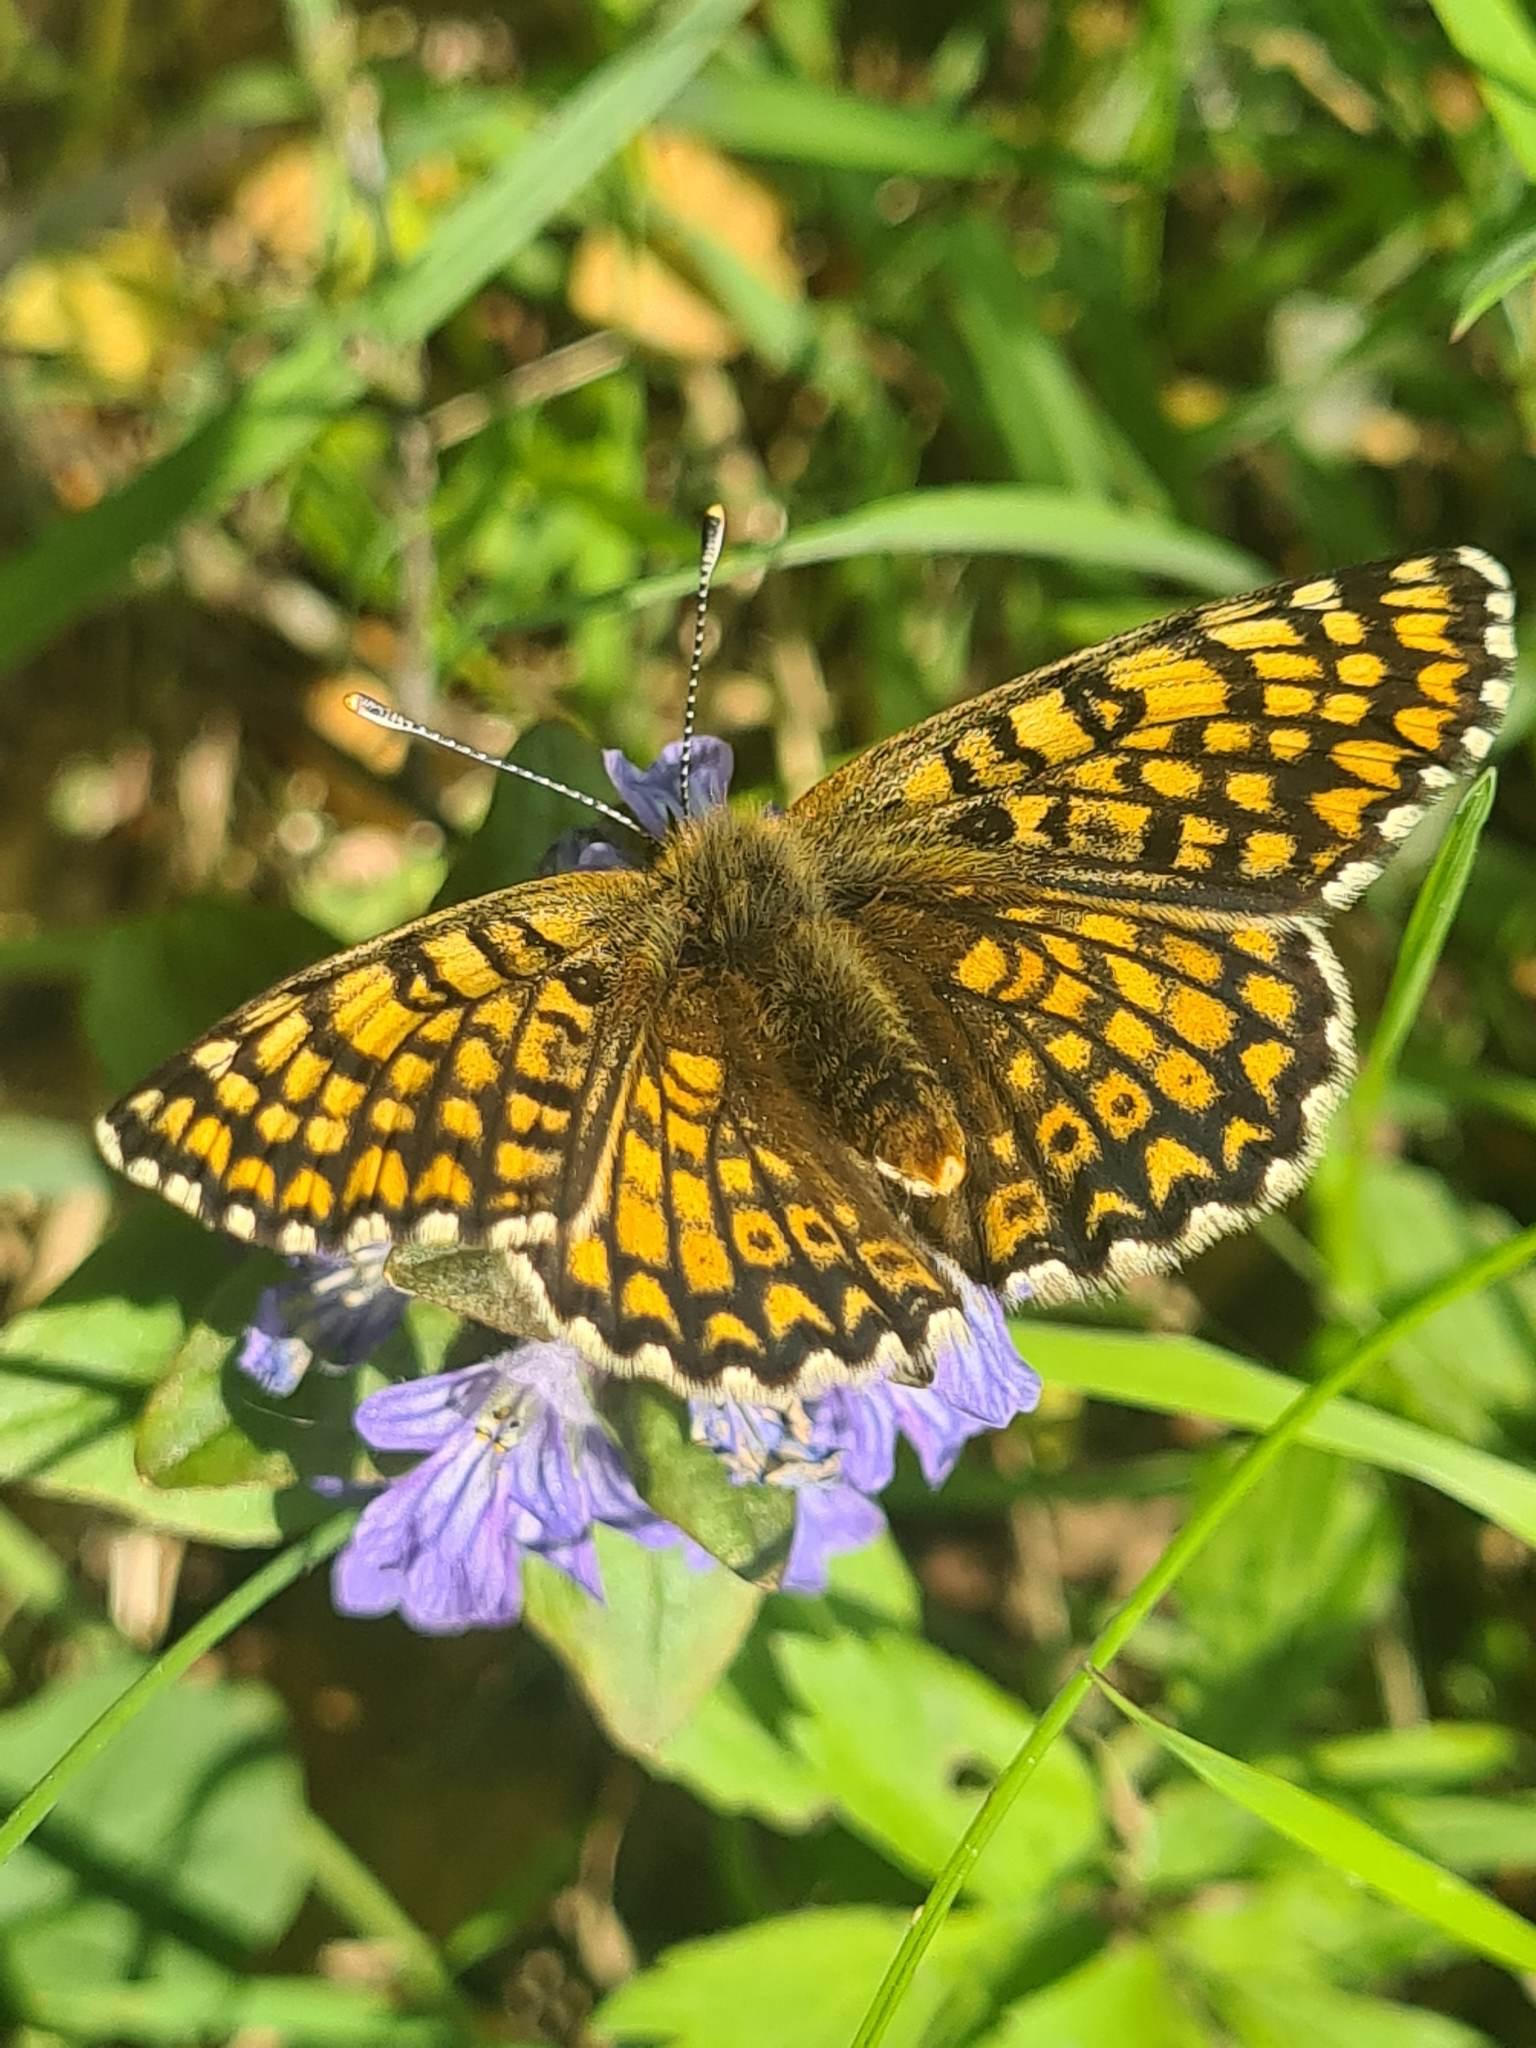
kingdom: Animalia
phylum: Arthropoda
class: Insecta
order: Lepidoptera
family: Nymphalidae
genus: Melitaea
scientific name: Melitaea cinxia
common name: Okkergul pletvinge
